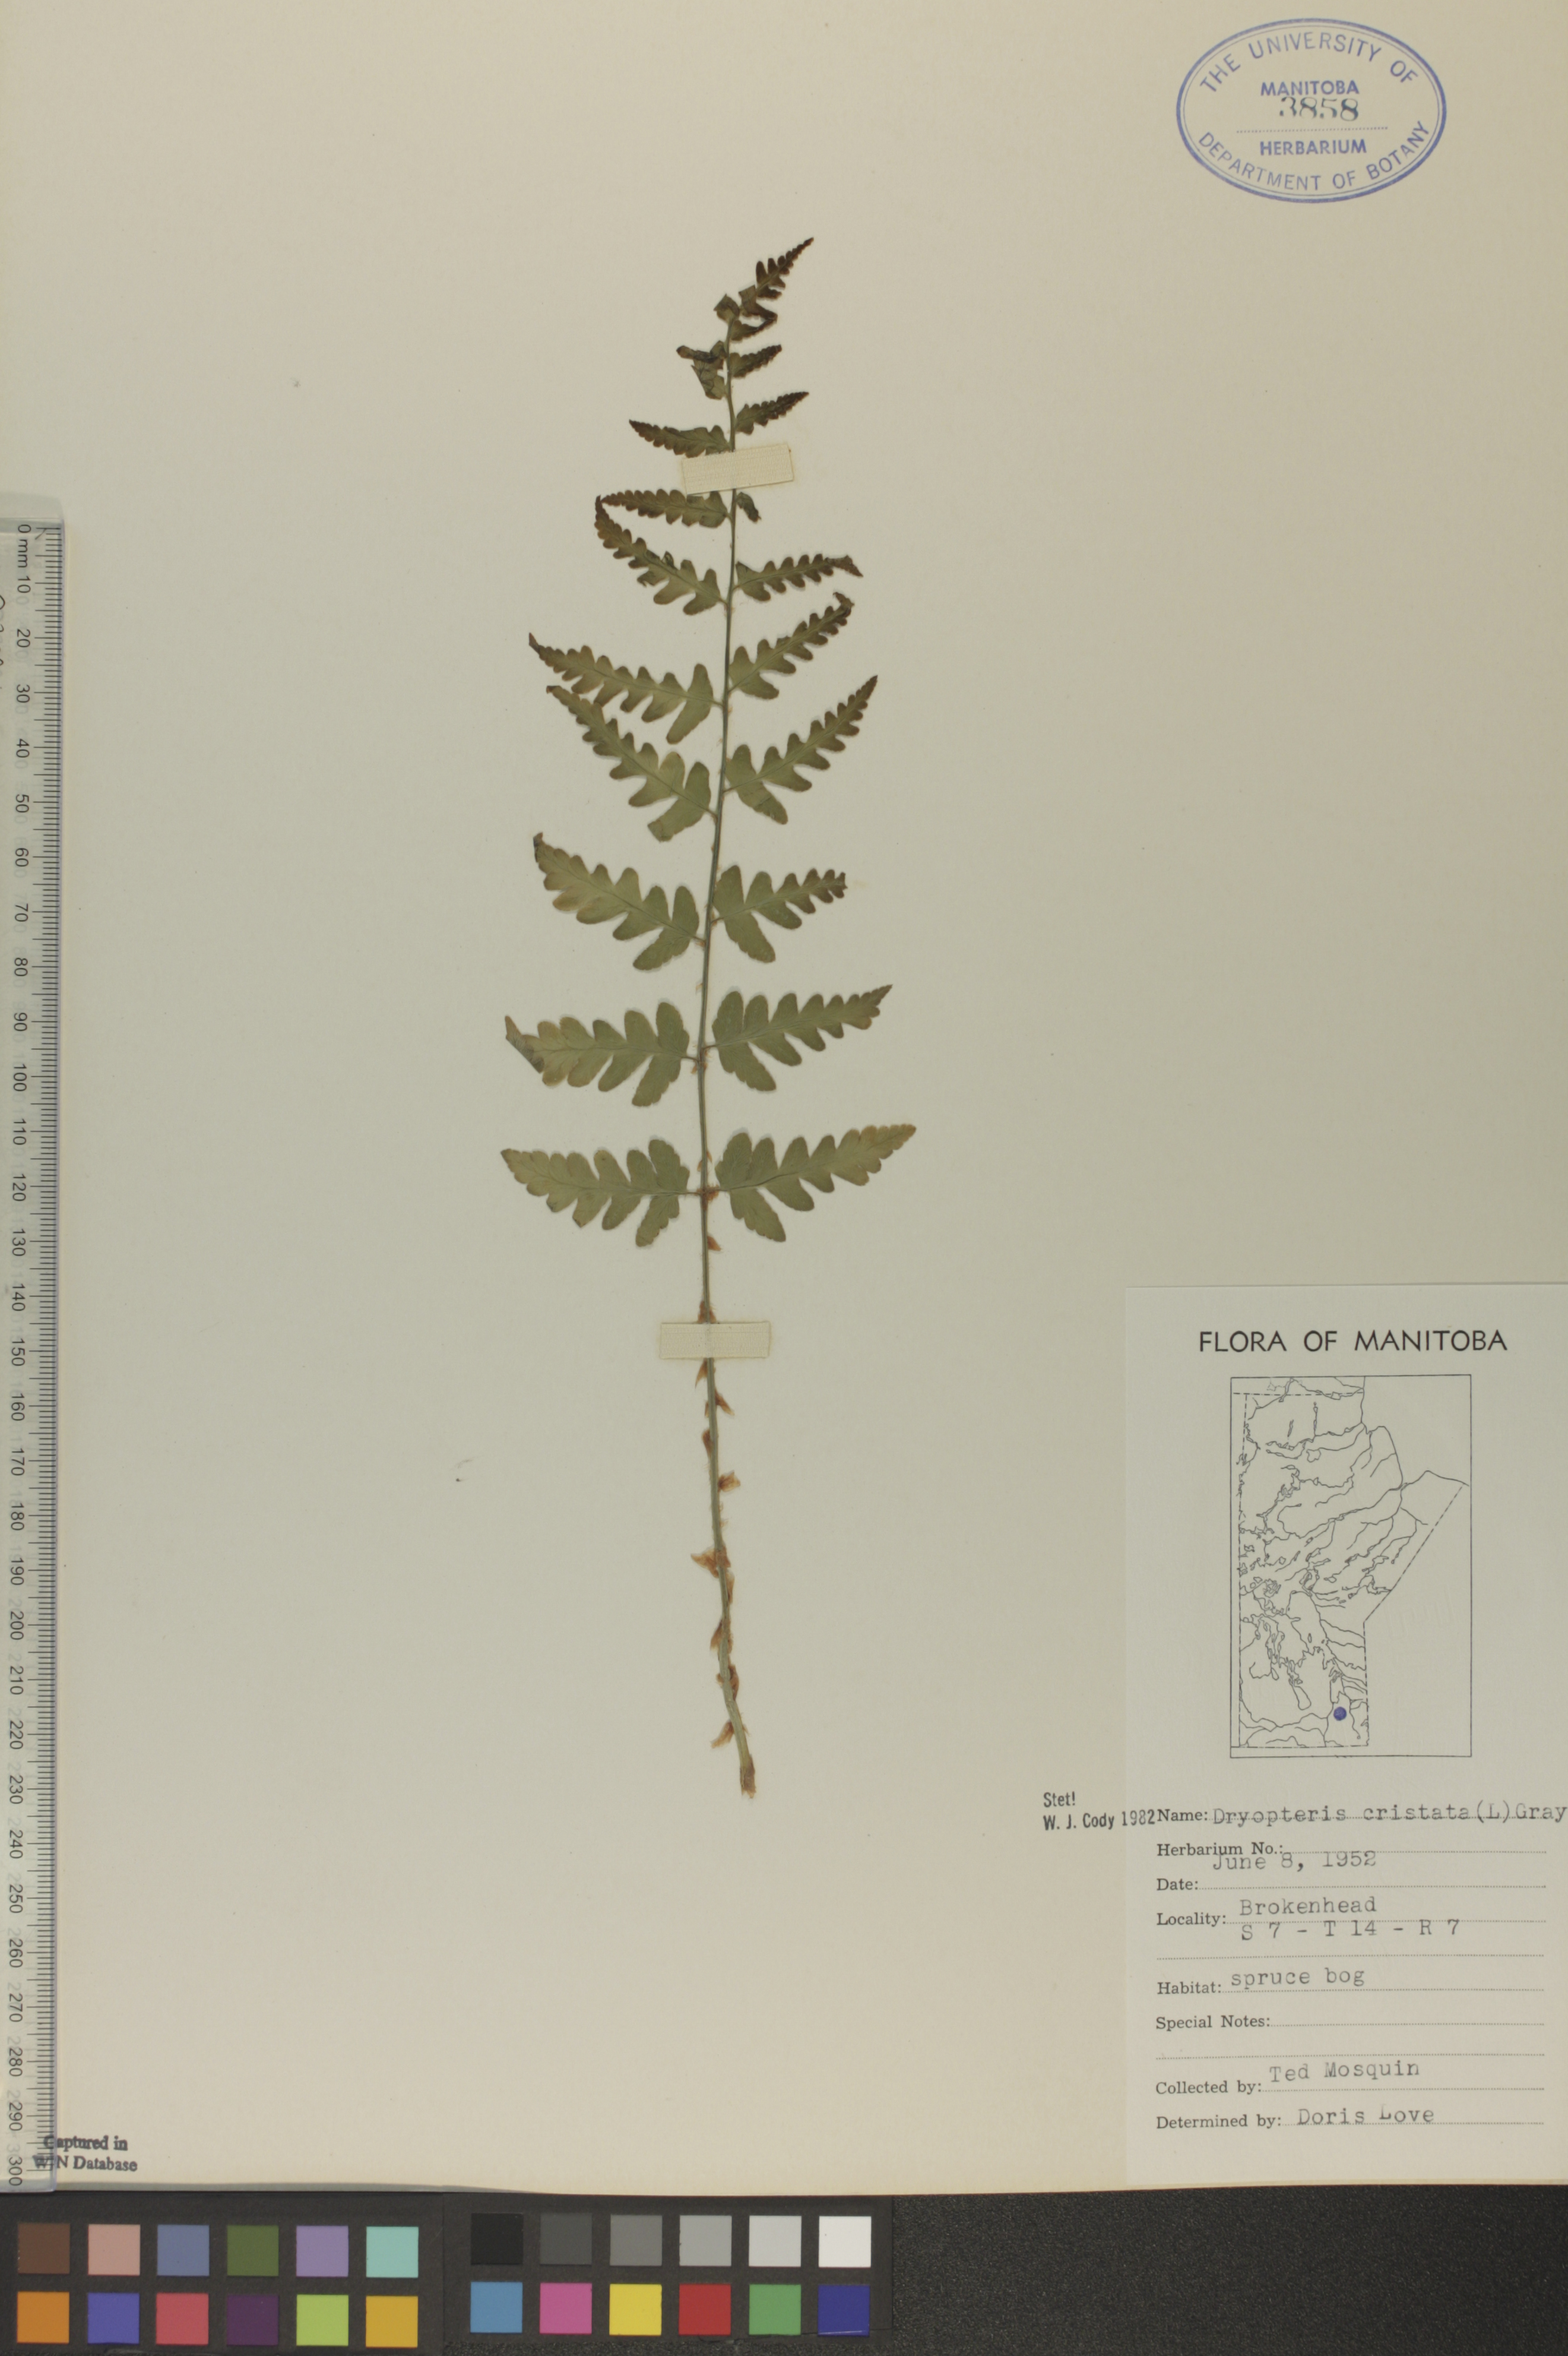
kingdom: Plantae
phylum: Tracheophyta
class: Polypodiopsida
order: Polypodiales
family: Dryopteridaceae
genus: Dryopteris
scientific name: Dryopteris cristata
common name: Crested wood fern
